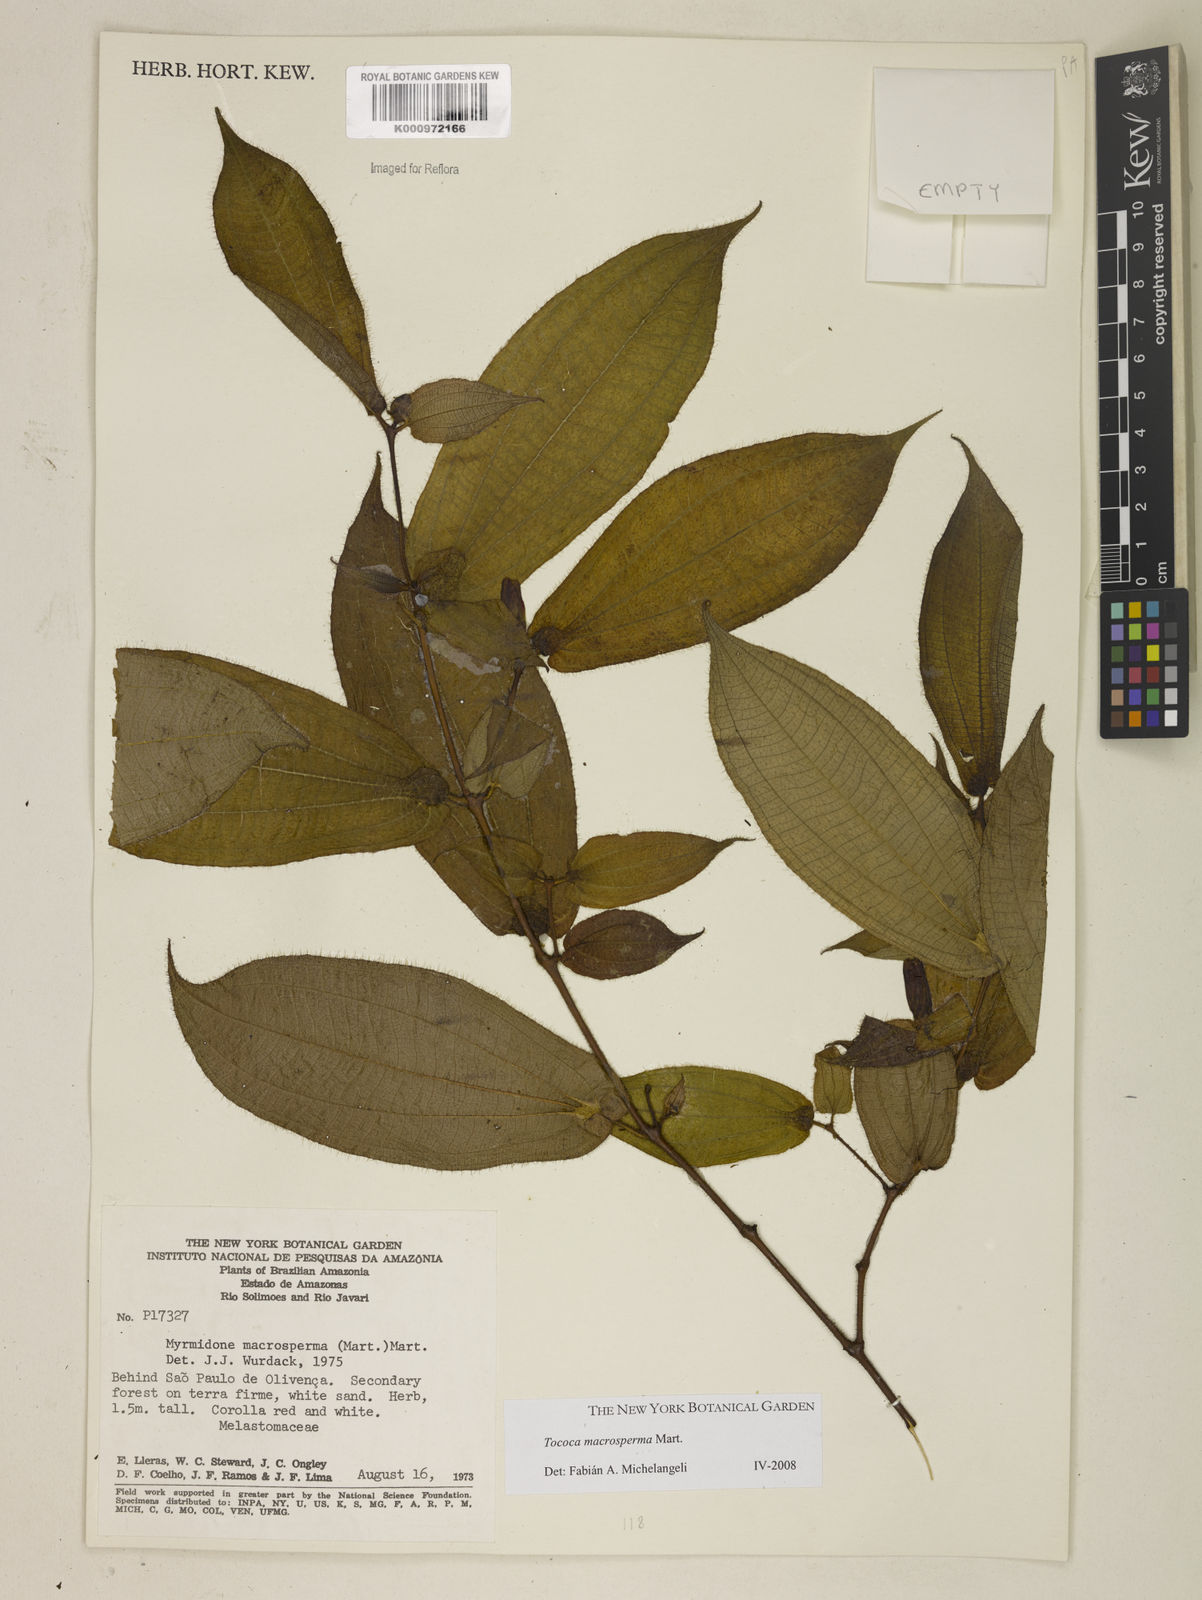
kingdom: Plantae
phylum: Tracheophyta
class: Magnoliopsida
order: Myrtales
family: Melastomataceae
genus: Miconia
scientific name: Miconia macrosperma
